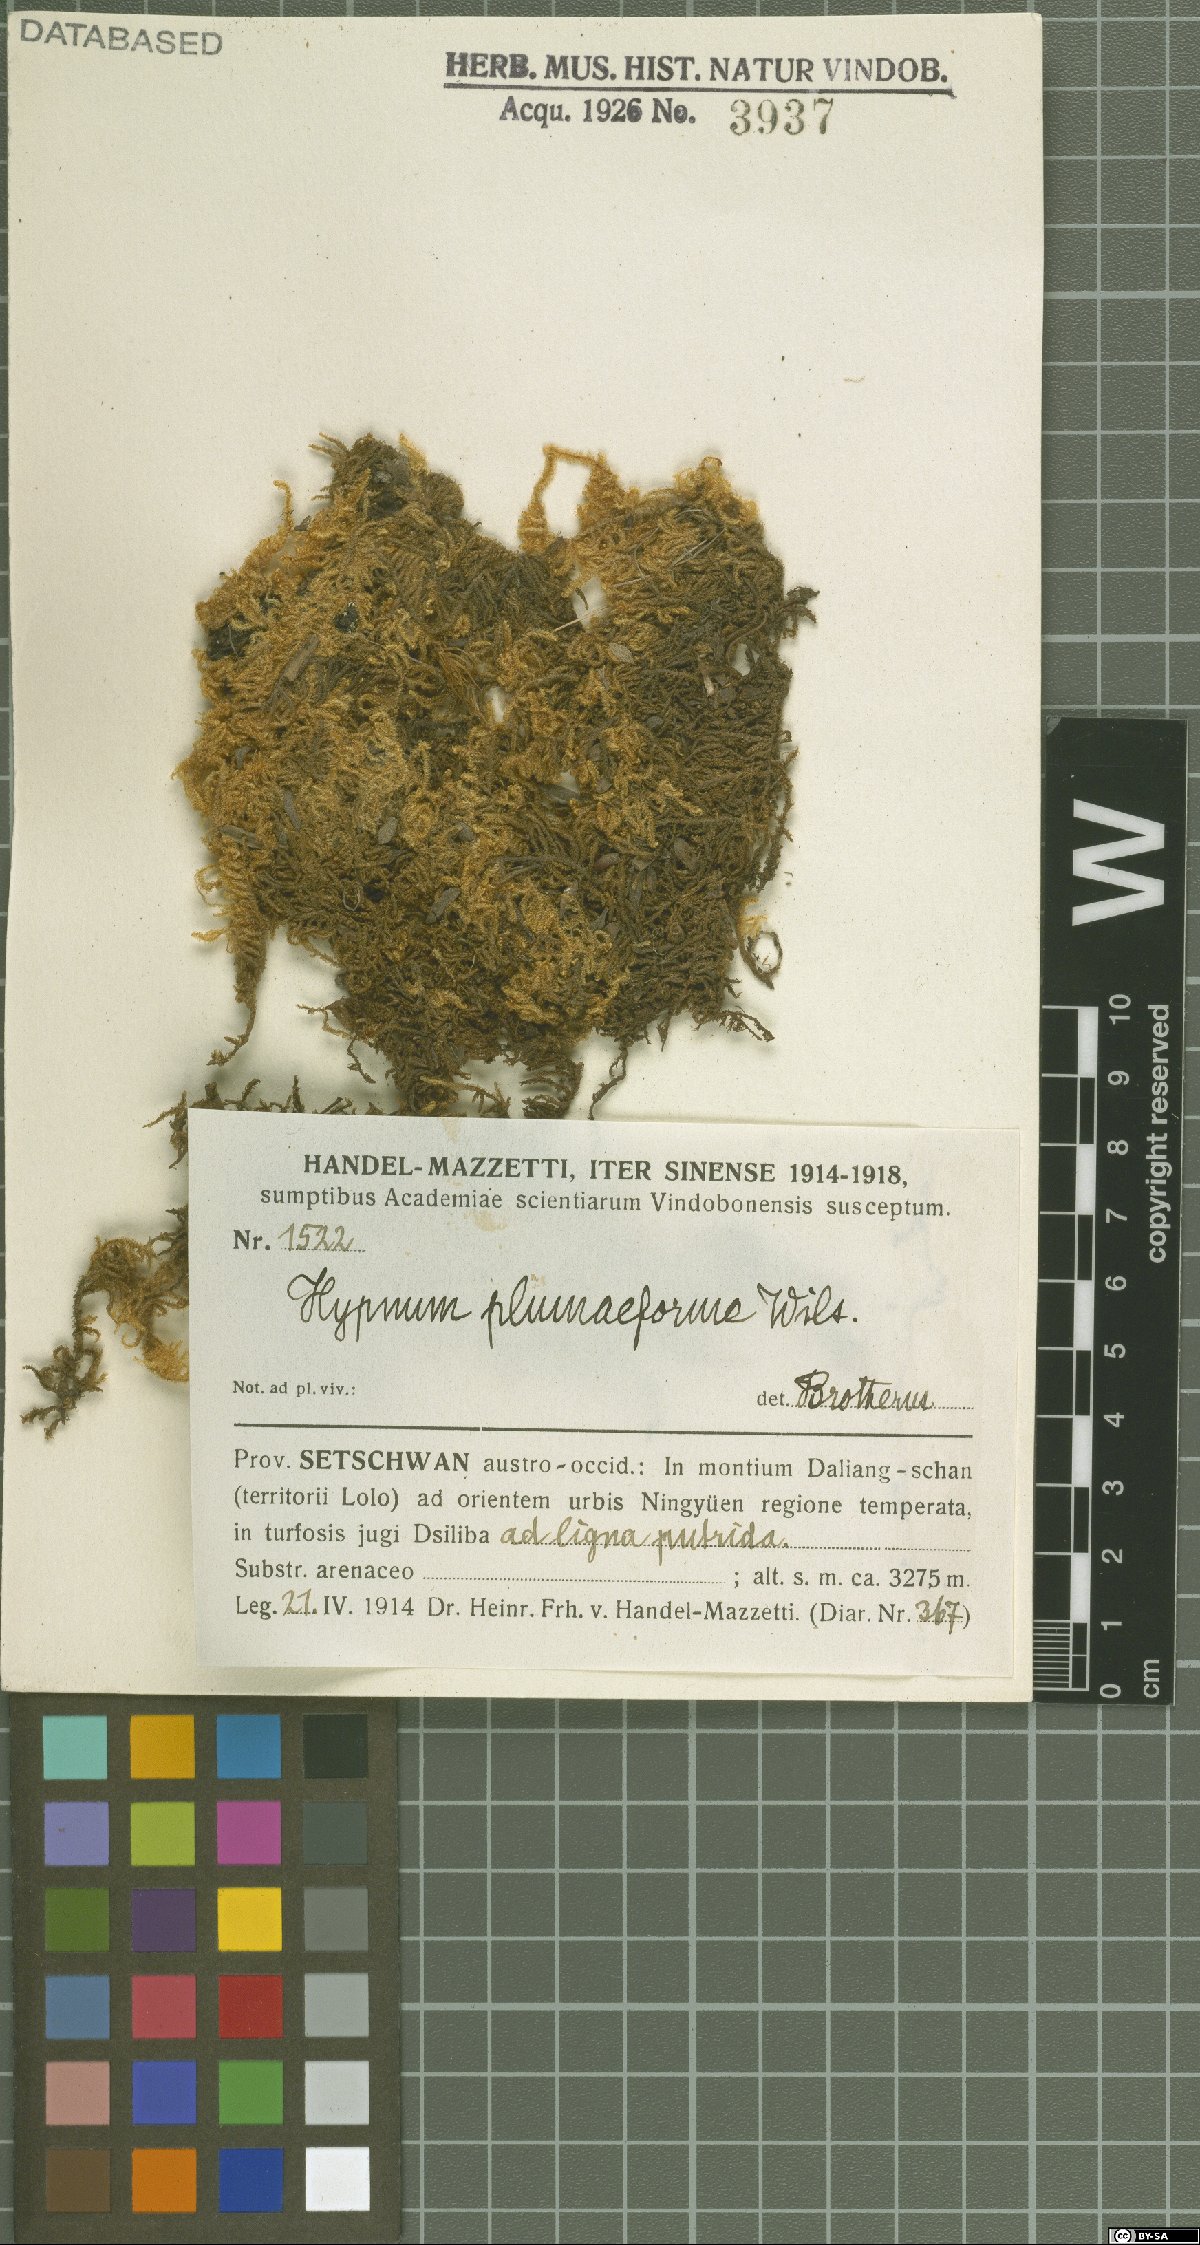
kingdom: Plantae
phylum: Bryophyta
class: Bryopsida
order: Hypnales
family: Hypnaceae
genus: Hypnum
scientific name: Hypnum plumaeforme
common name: Cypress-leaved plaitmoss
